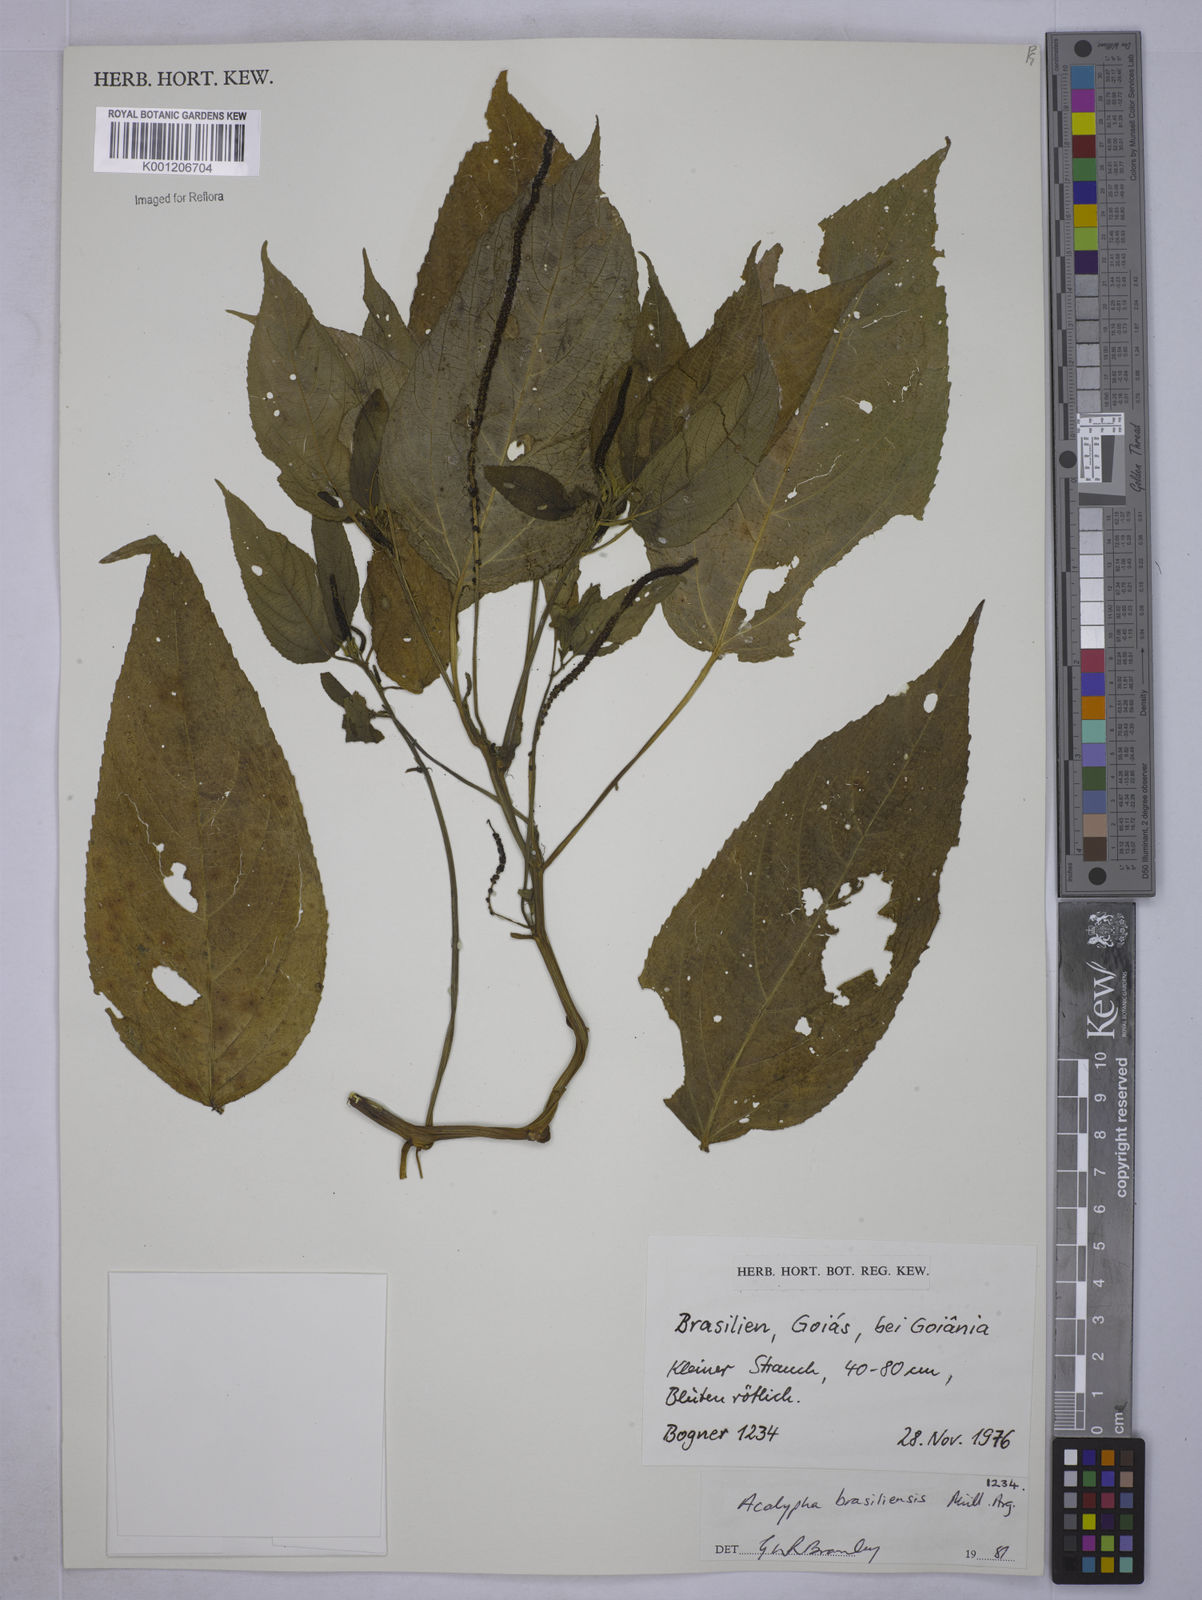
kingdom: Plantae
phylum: Tracheophyta
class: Magnoliopsida
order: Malpighiales
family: Euphorbiaceae
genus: Acalypha
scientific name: Acalypha
